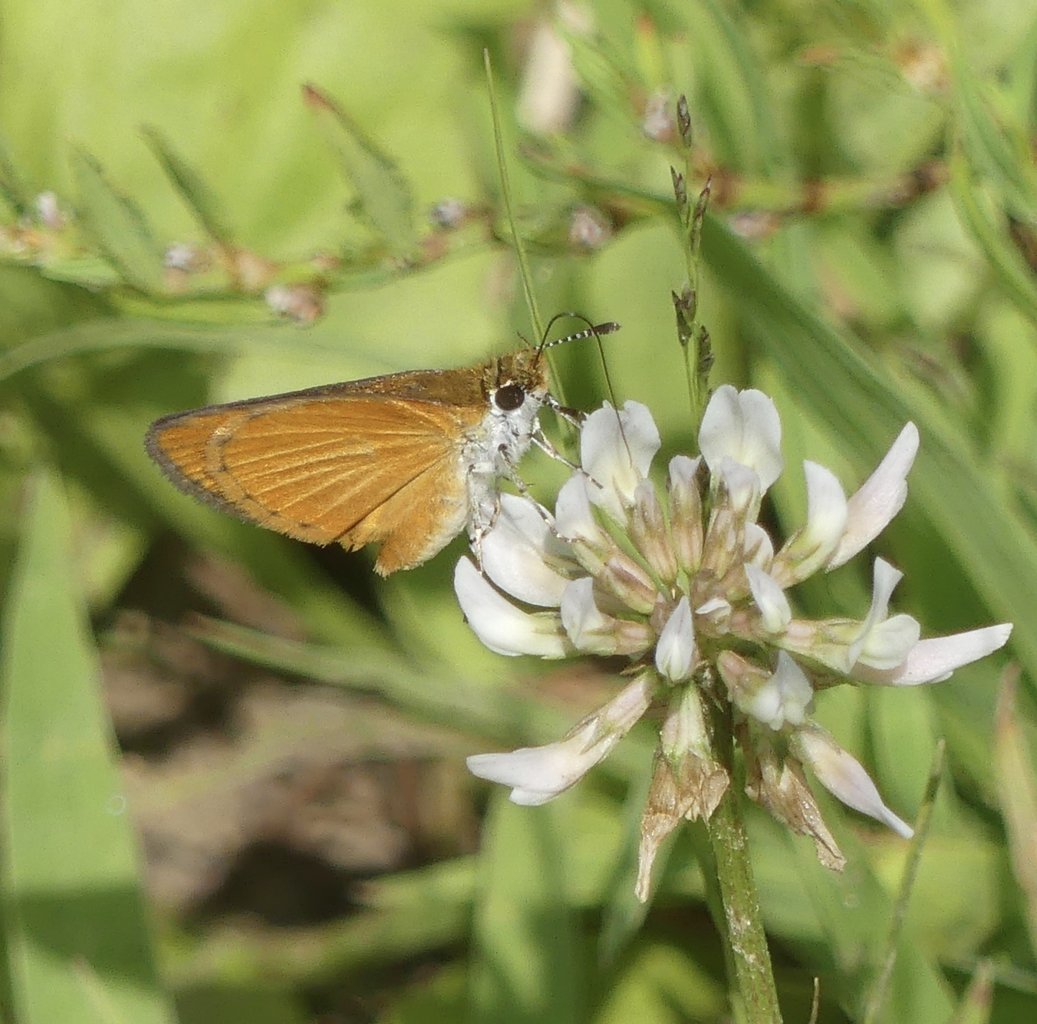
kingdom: Animalia
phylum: Arthropoda
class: Insecta
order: Lepidoptera
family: Hesperiidae
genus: Ancyloxypha
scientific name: Ancyloxypha numitor
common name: Least Skipper
